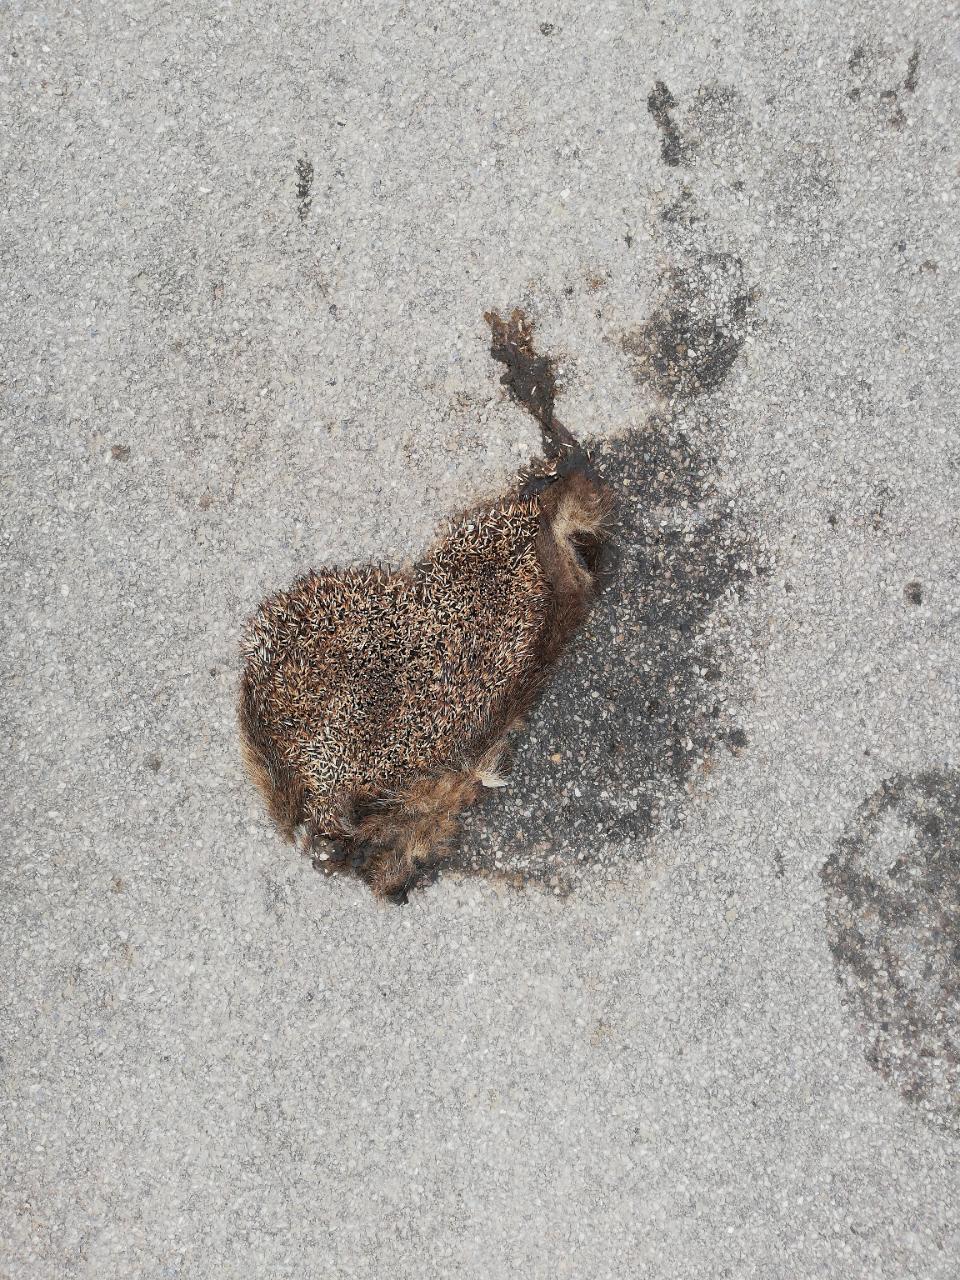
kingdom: Animalia
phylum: Chordata
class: Mammalia
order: Erinaceomorpha
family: Erinaceidae
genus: Erinaceus
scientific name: Erinaceus
